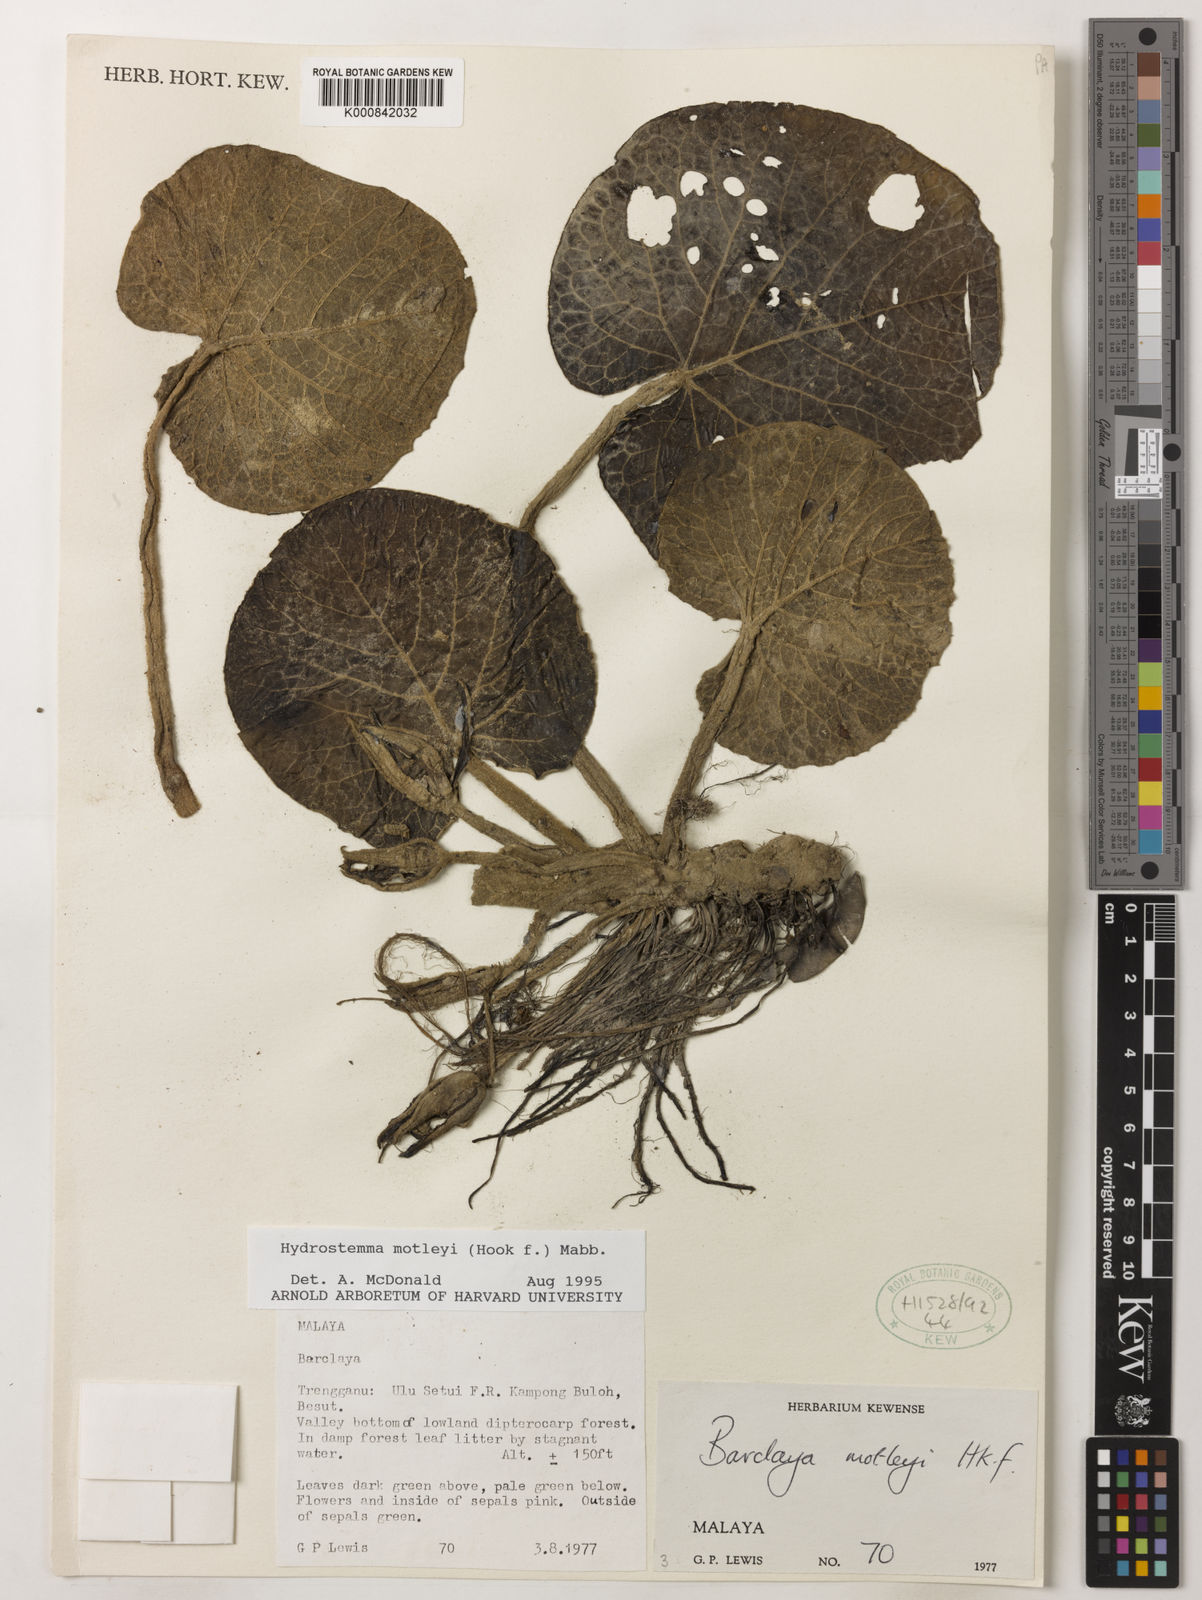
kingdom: Plantae
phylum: Tracheophyta
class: Magnoliopsida
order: Nymphaeales
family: Nymphaeaceae
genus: Barclaya
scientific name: Barclaya motleyi
